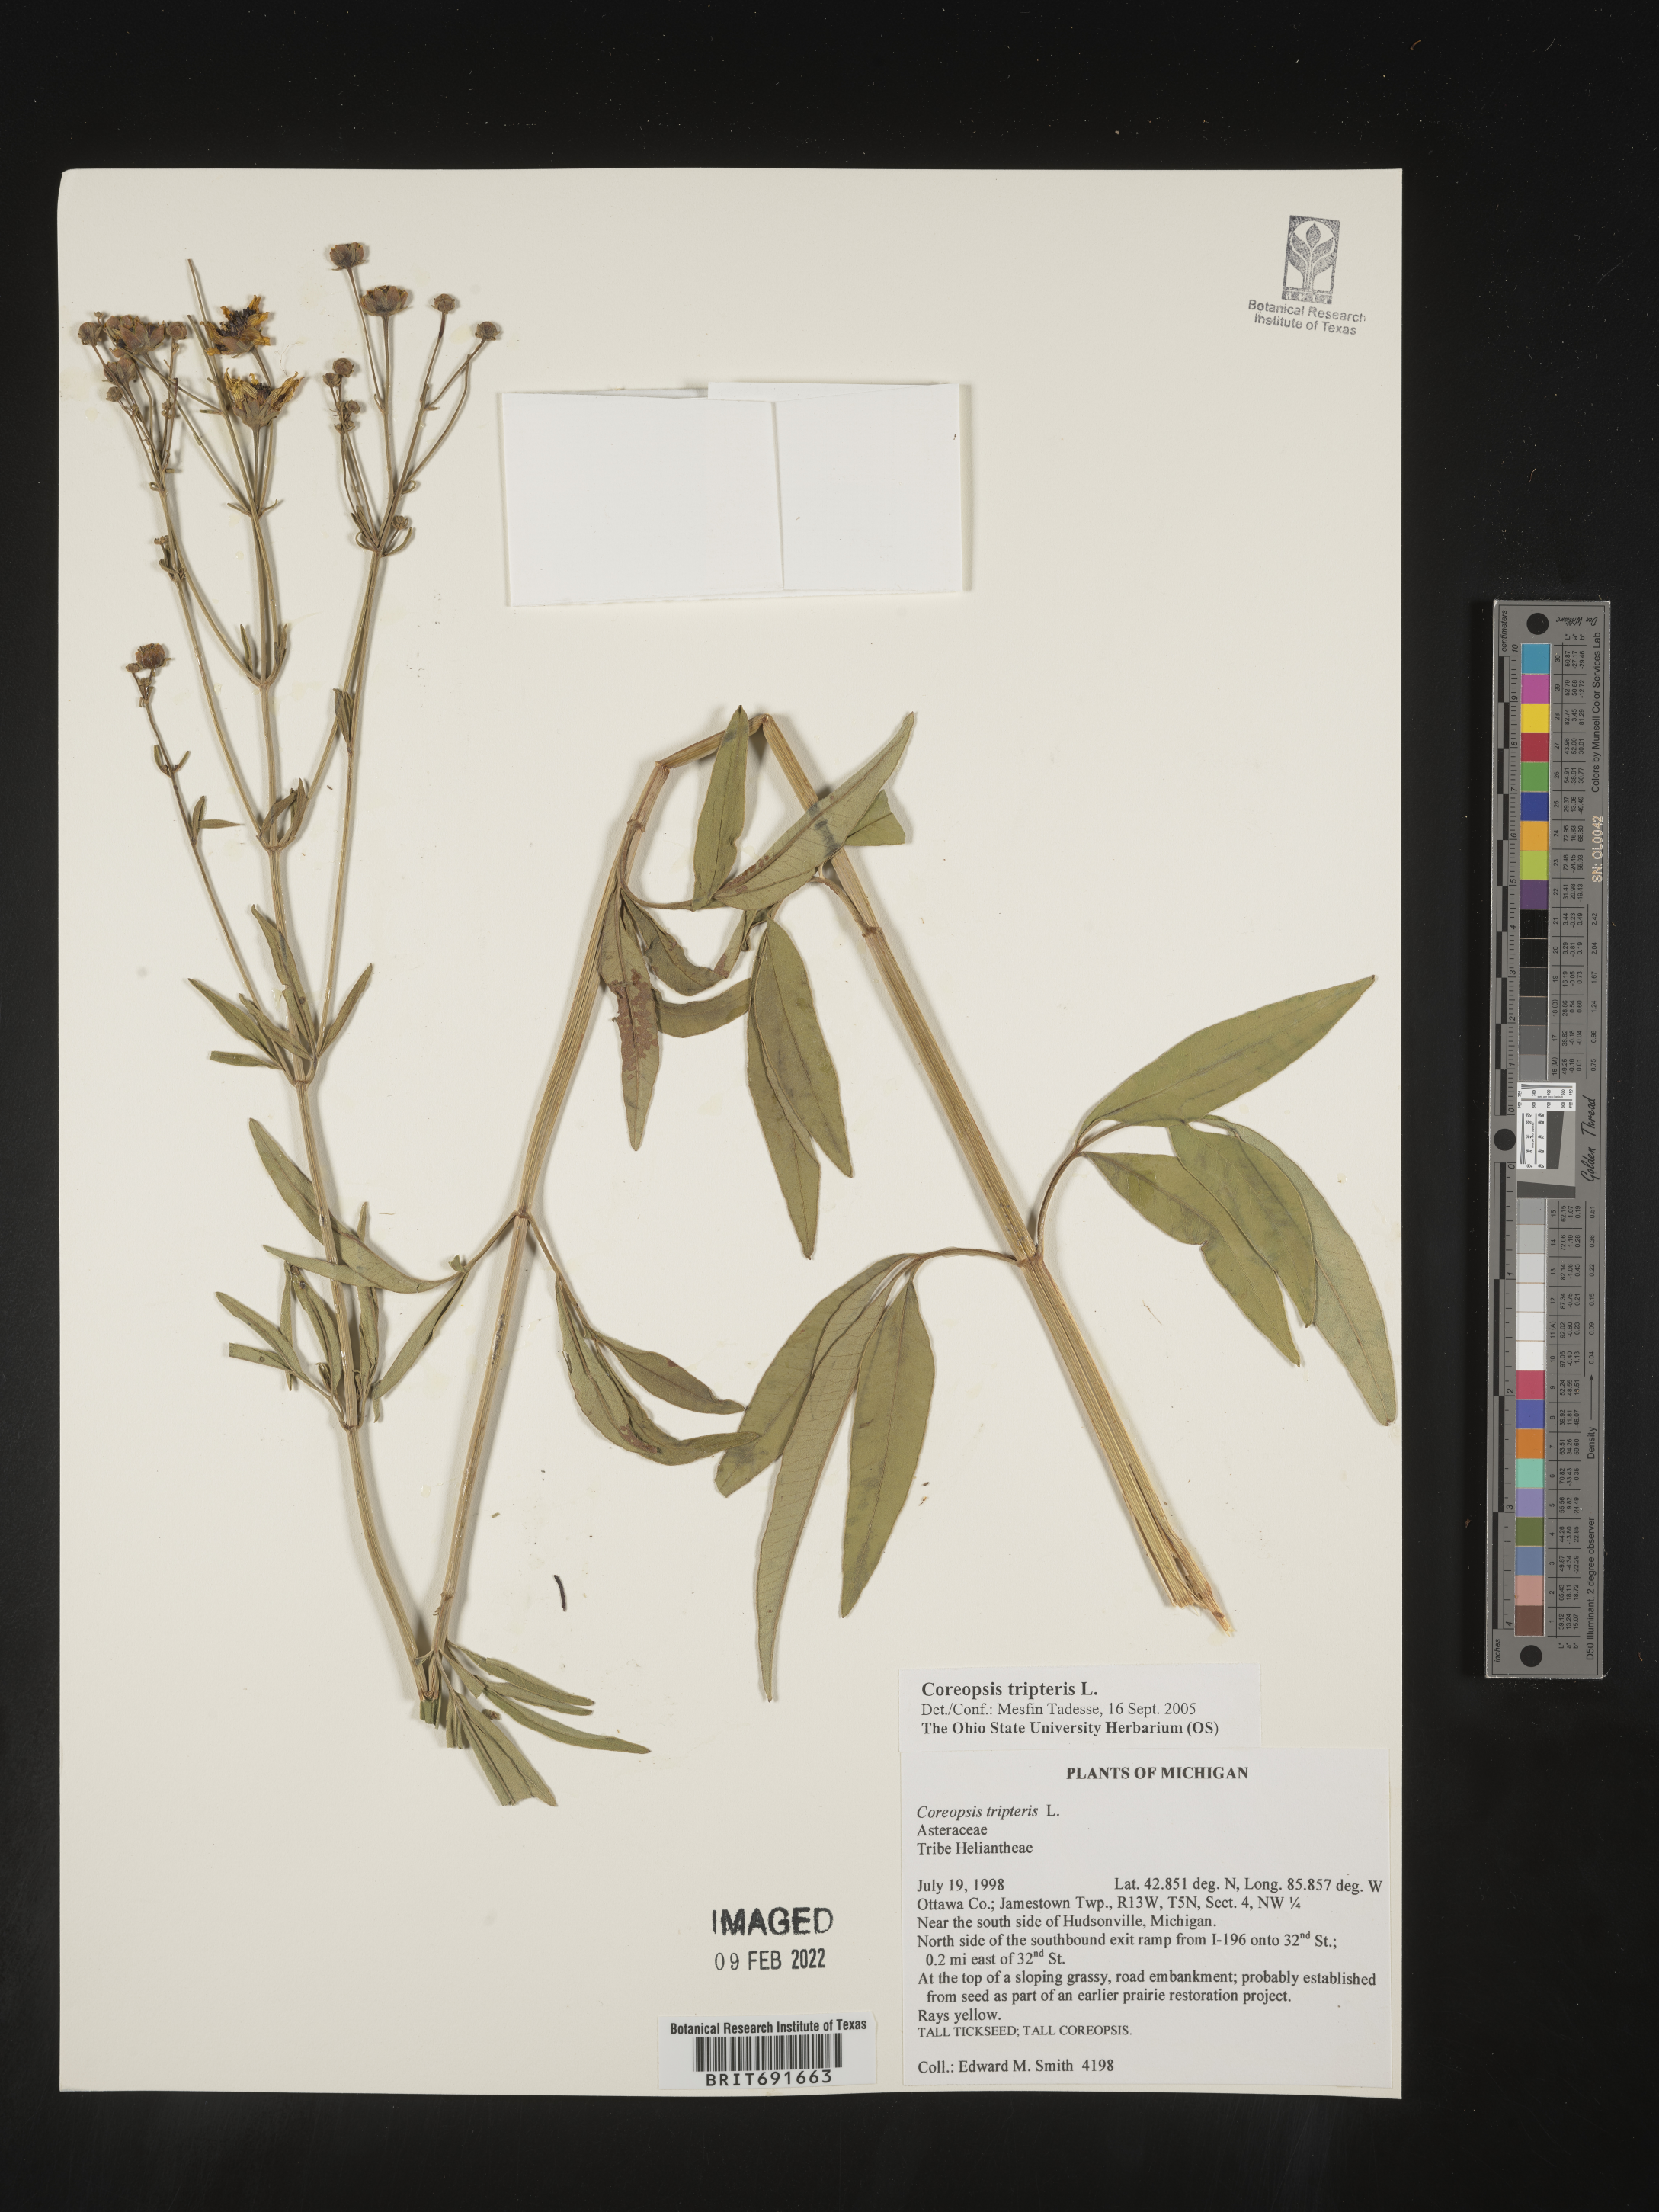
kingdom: Plantae
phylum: Tracheophyta
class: Magnoliopsida
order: Asterales
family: Asteraceae
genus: Coreopsis
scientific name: Coreopsis tripteris
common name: Tall coreopsis
